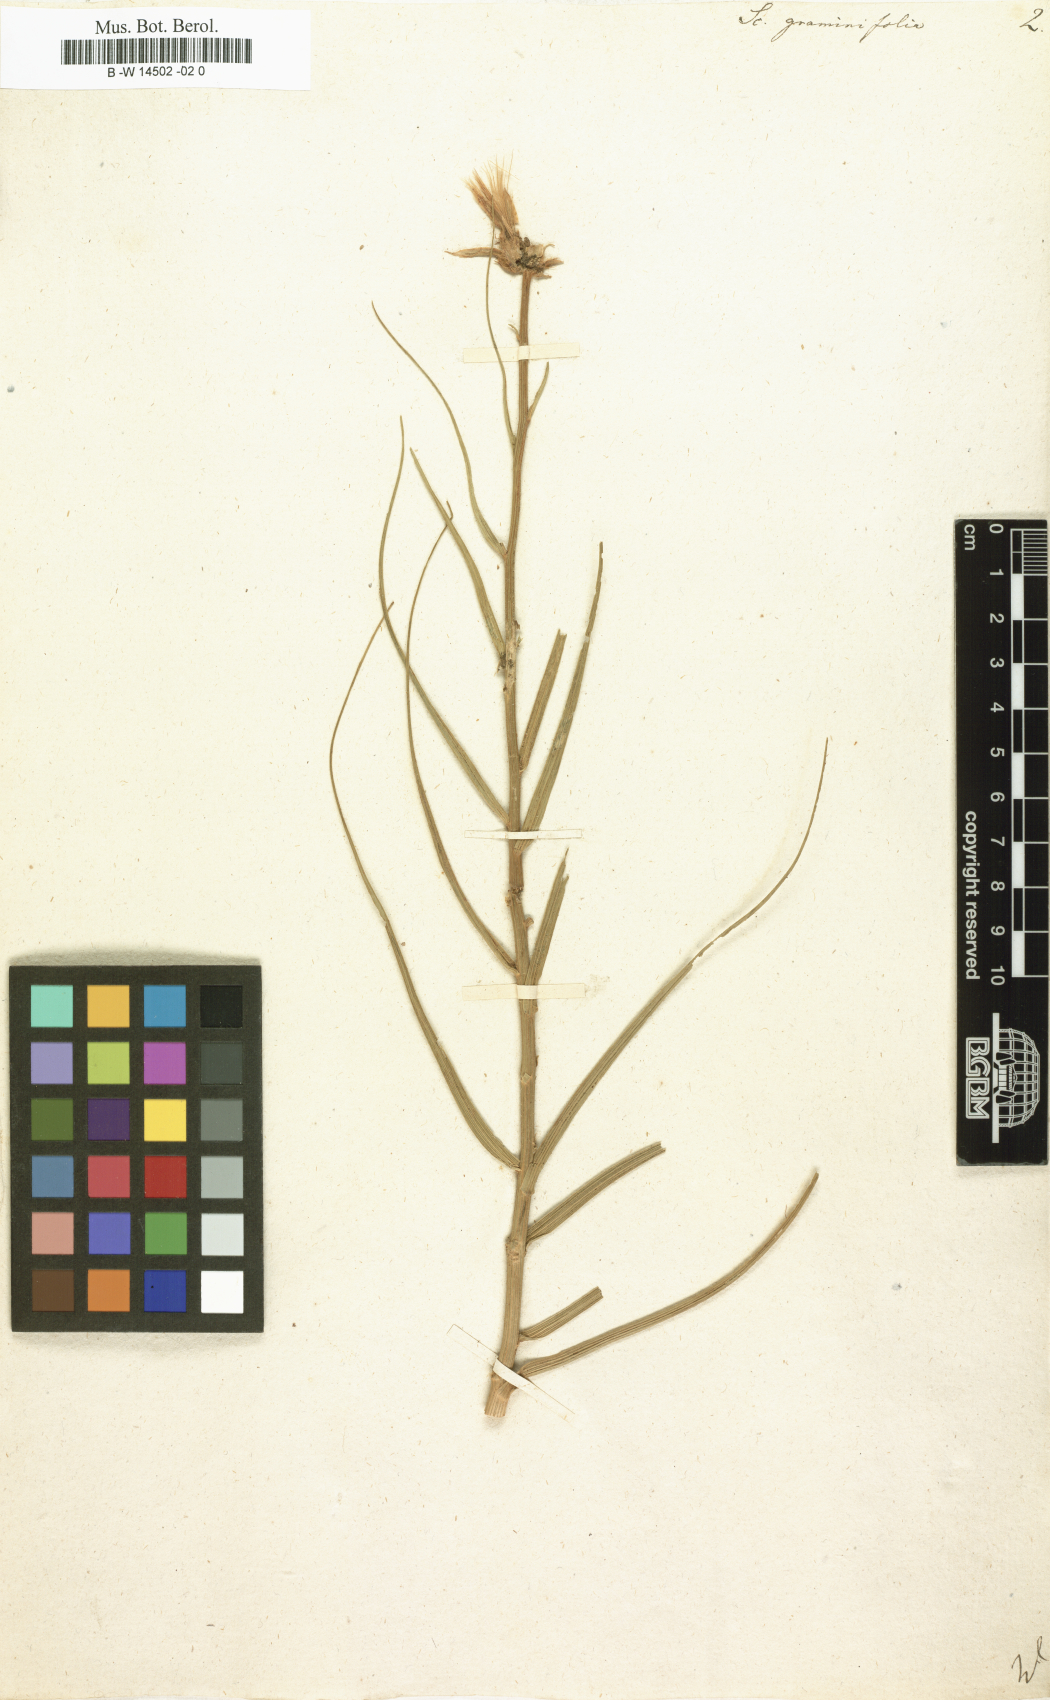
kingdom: Plantae
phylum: Tracheophyta
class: Magnoliopsida
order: Asterales
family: Asteraceae
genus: Scorzonera
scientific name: Scorzonera graminifolia
